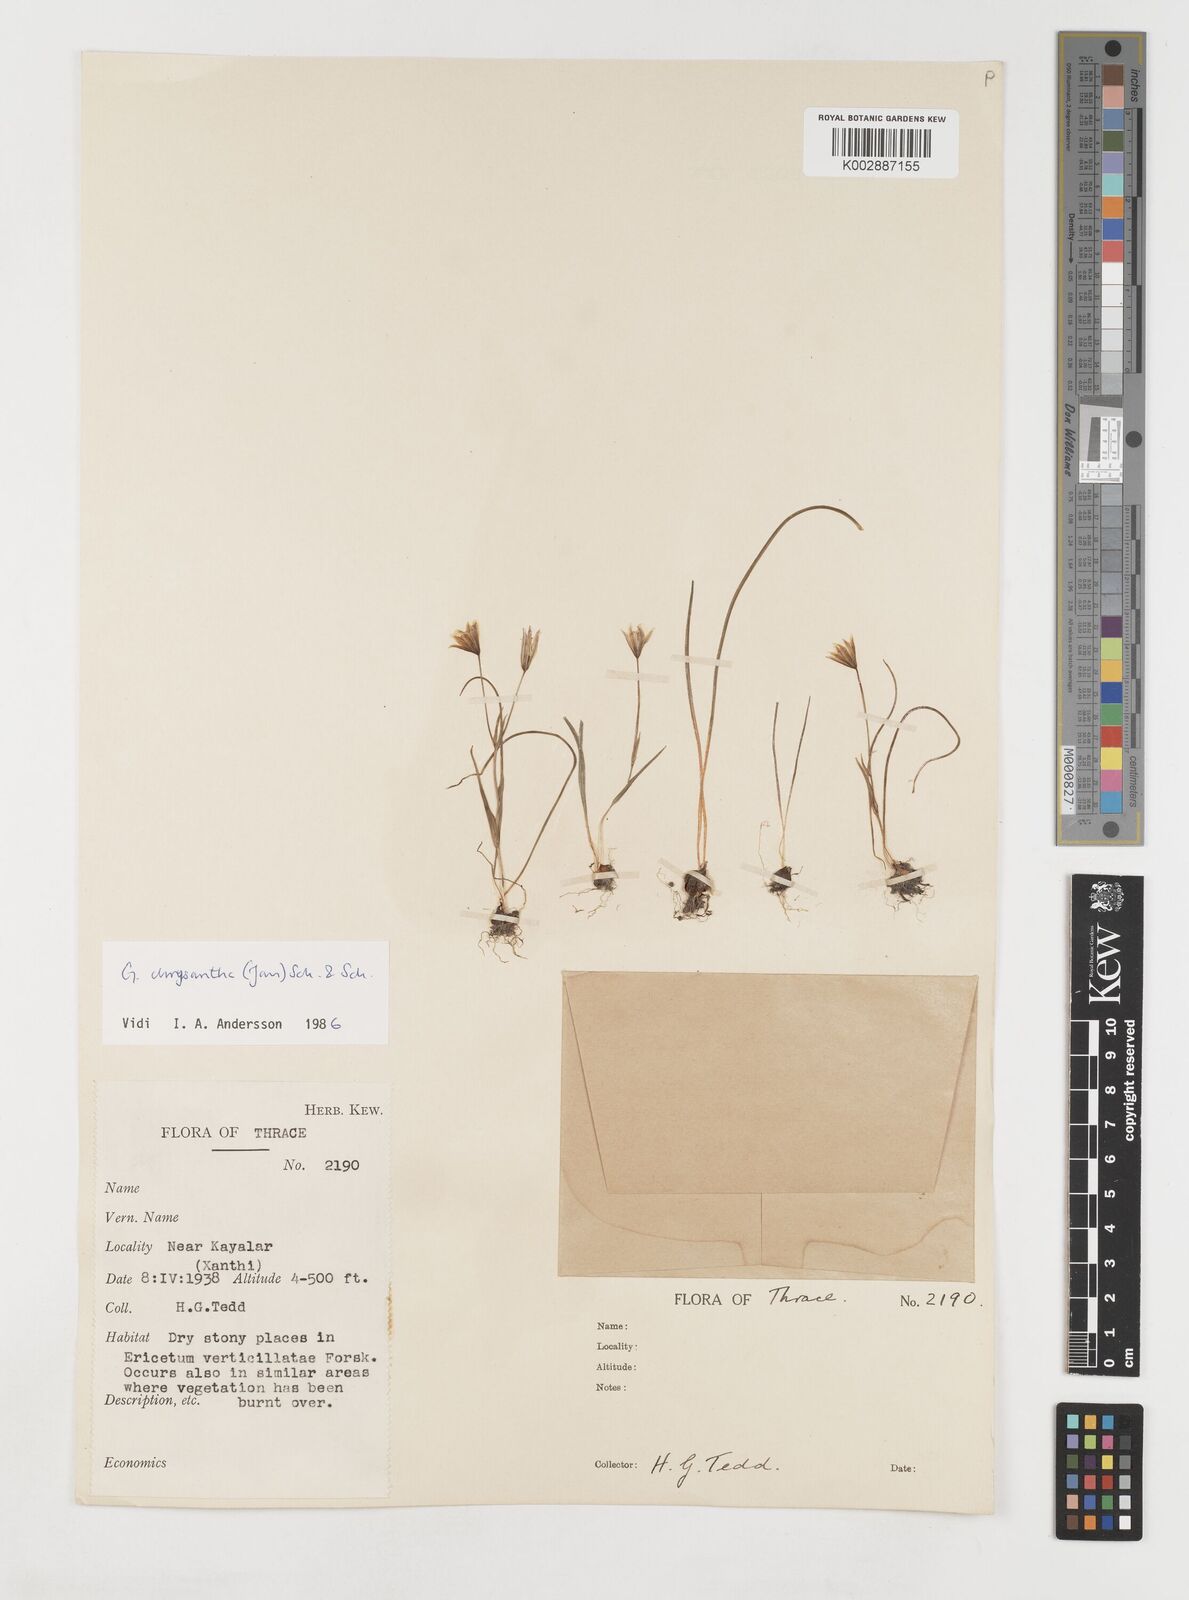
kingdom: Plantae
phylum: Tracheophyta
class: Liliopsida
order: Liliales
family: Liliaceae
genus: Gagea
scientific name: Gagea
